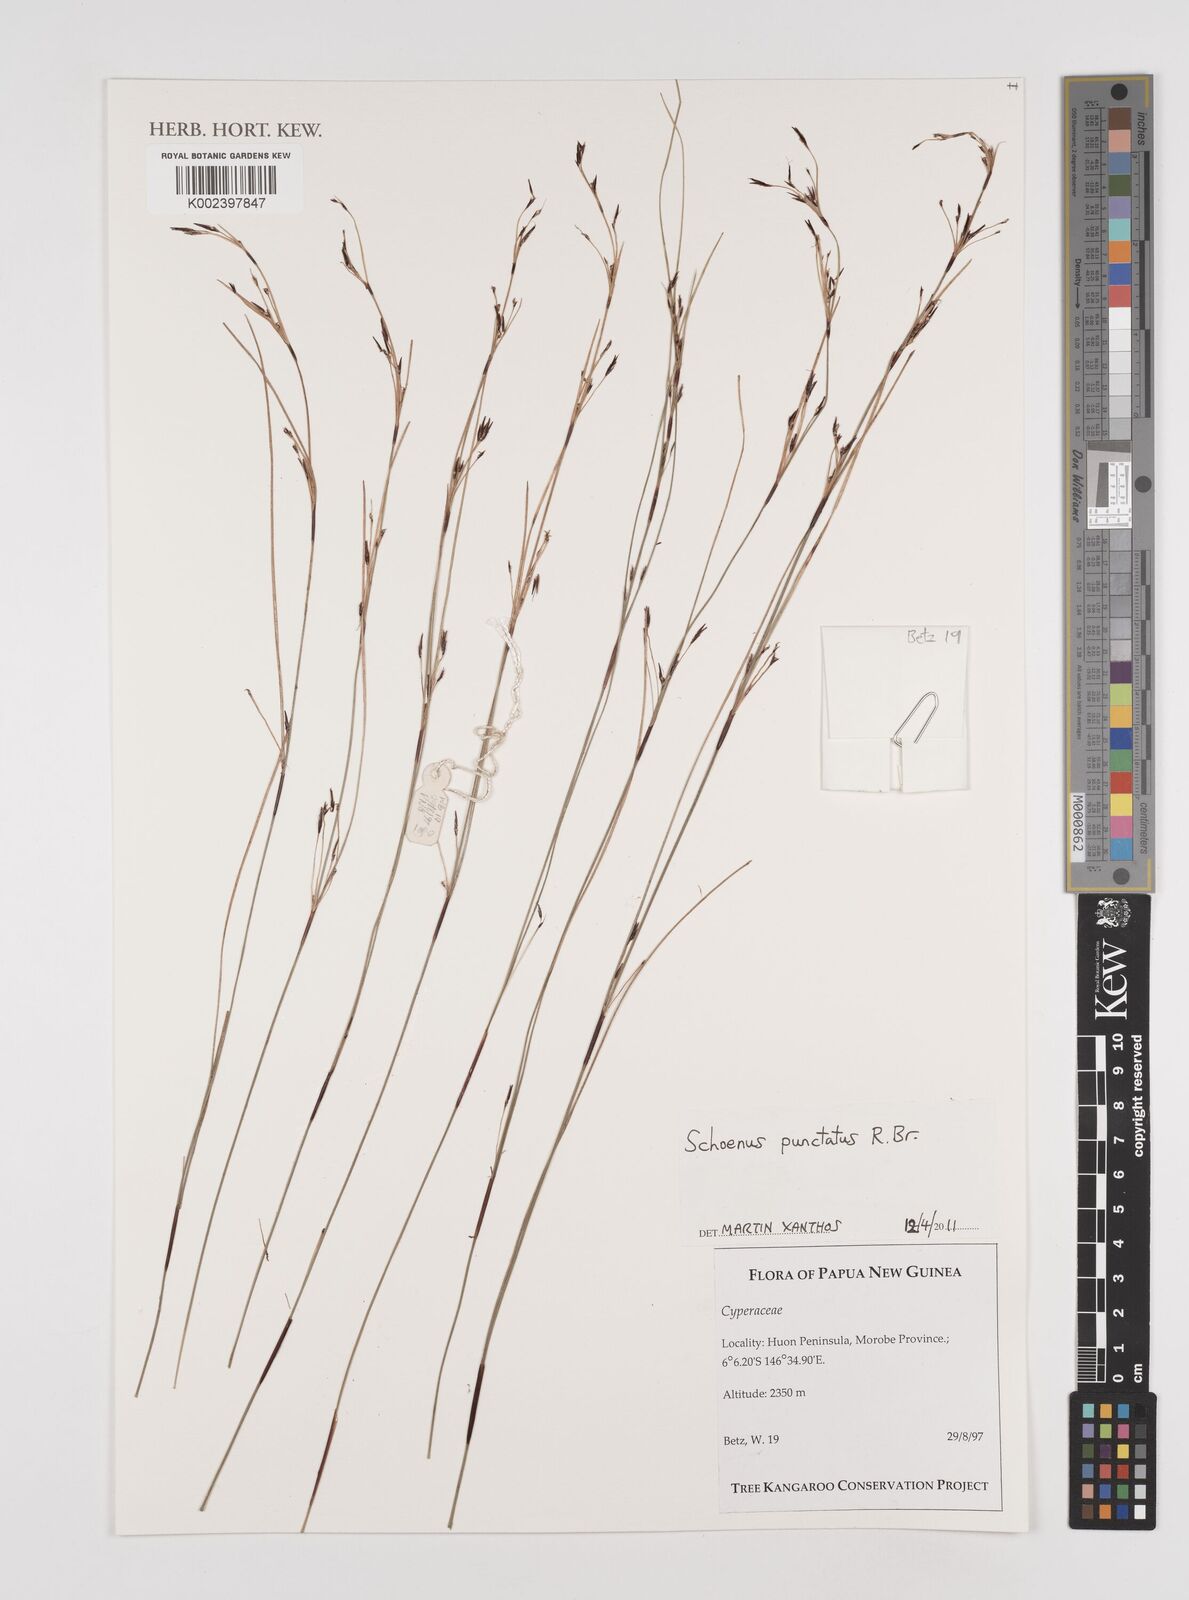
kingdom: Plantae
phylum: Tracheophyta
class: Liliopsida
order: Poales
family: Cyperaceae
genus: Schoenus
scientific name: Schoenus falcatus
